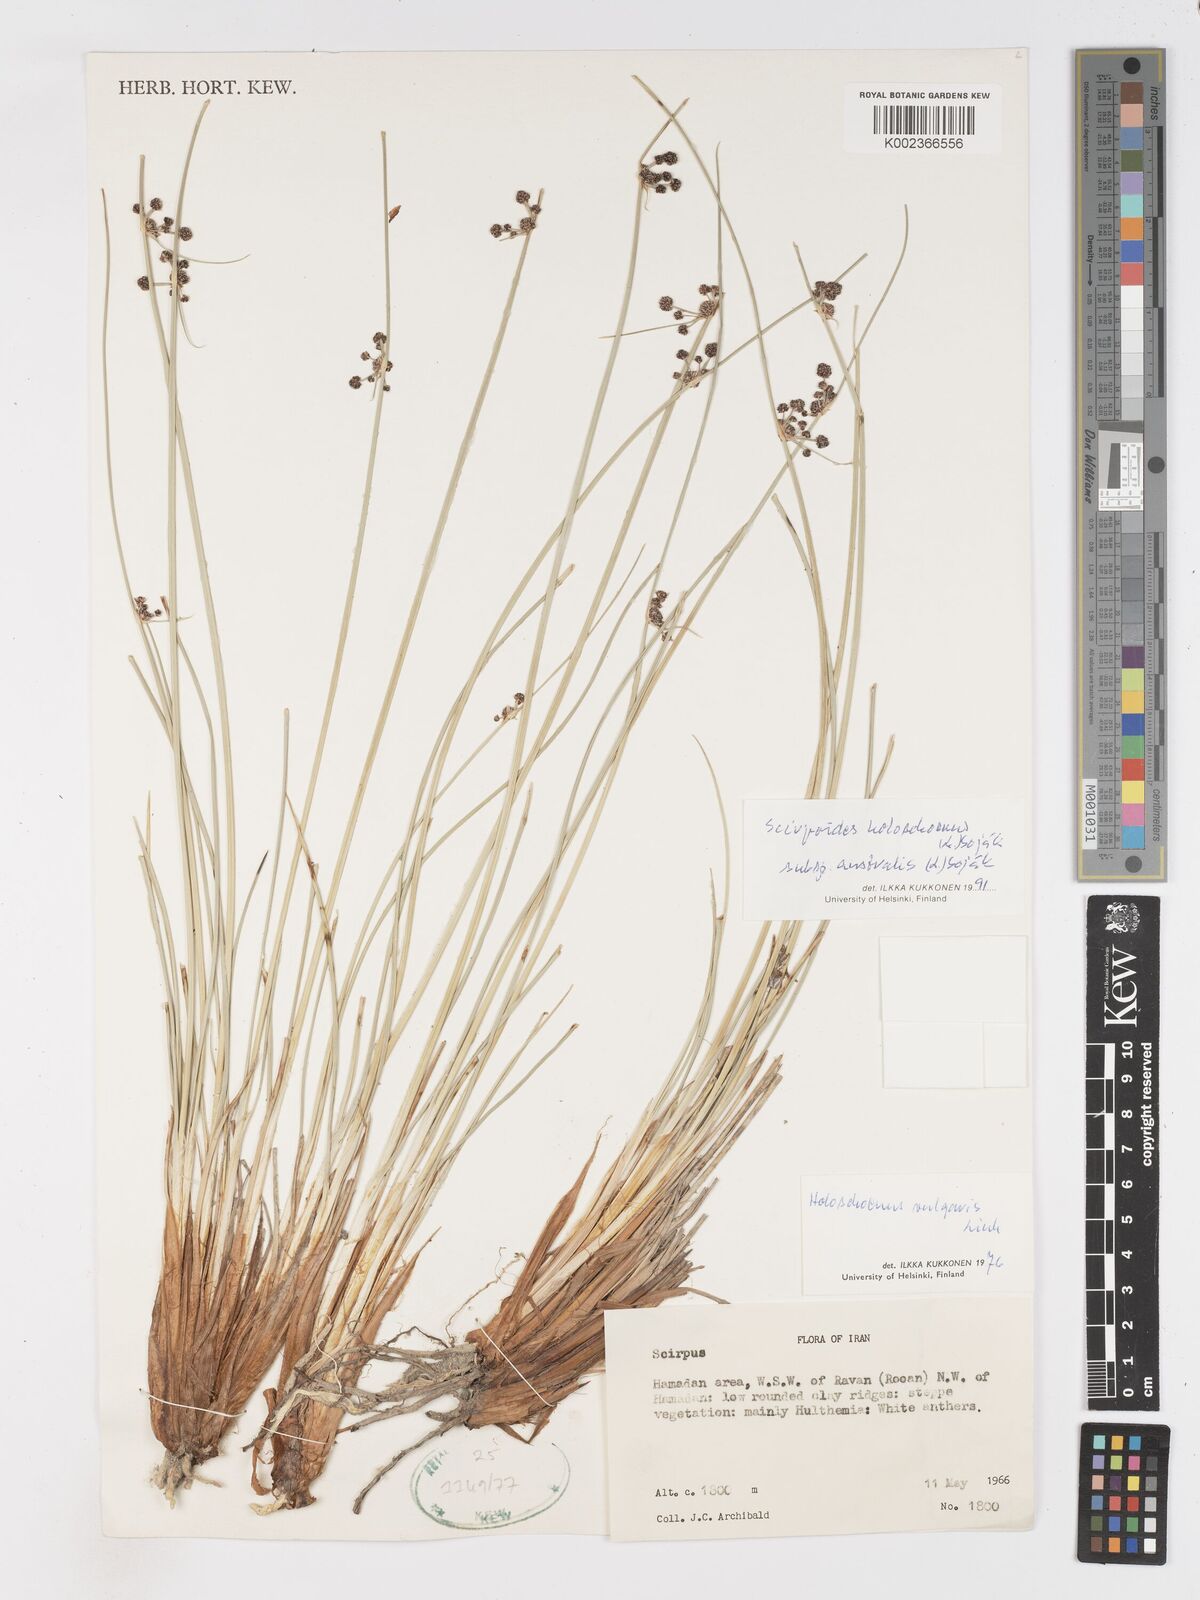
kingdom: Plantae
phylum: Tracheophyta
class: Liliopsida
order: Poales
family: Cyperaceae
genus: Scirpoides
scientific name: Scirpoides holoschoenus
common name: Round-headed club-rush
